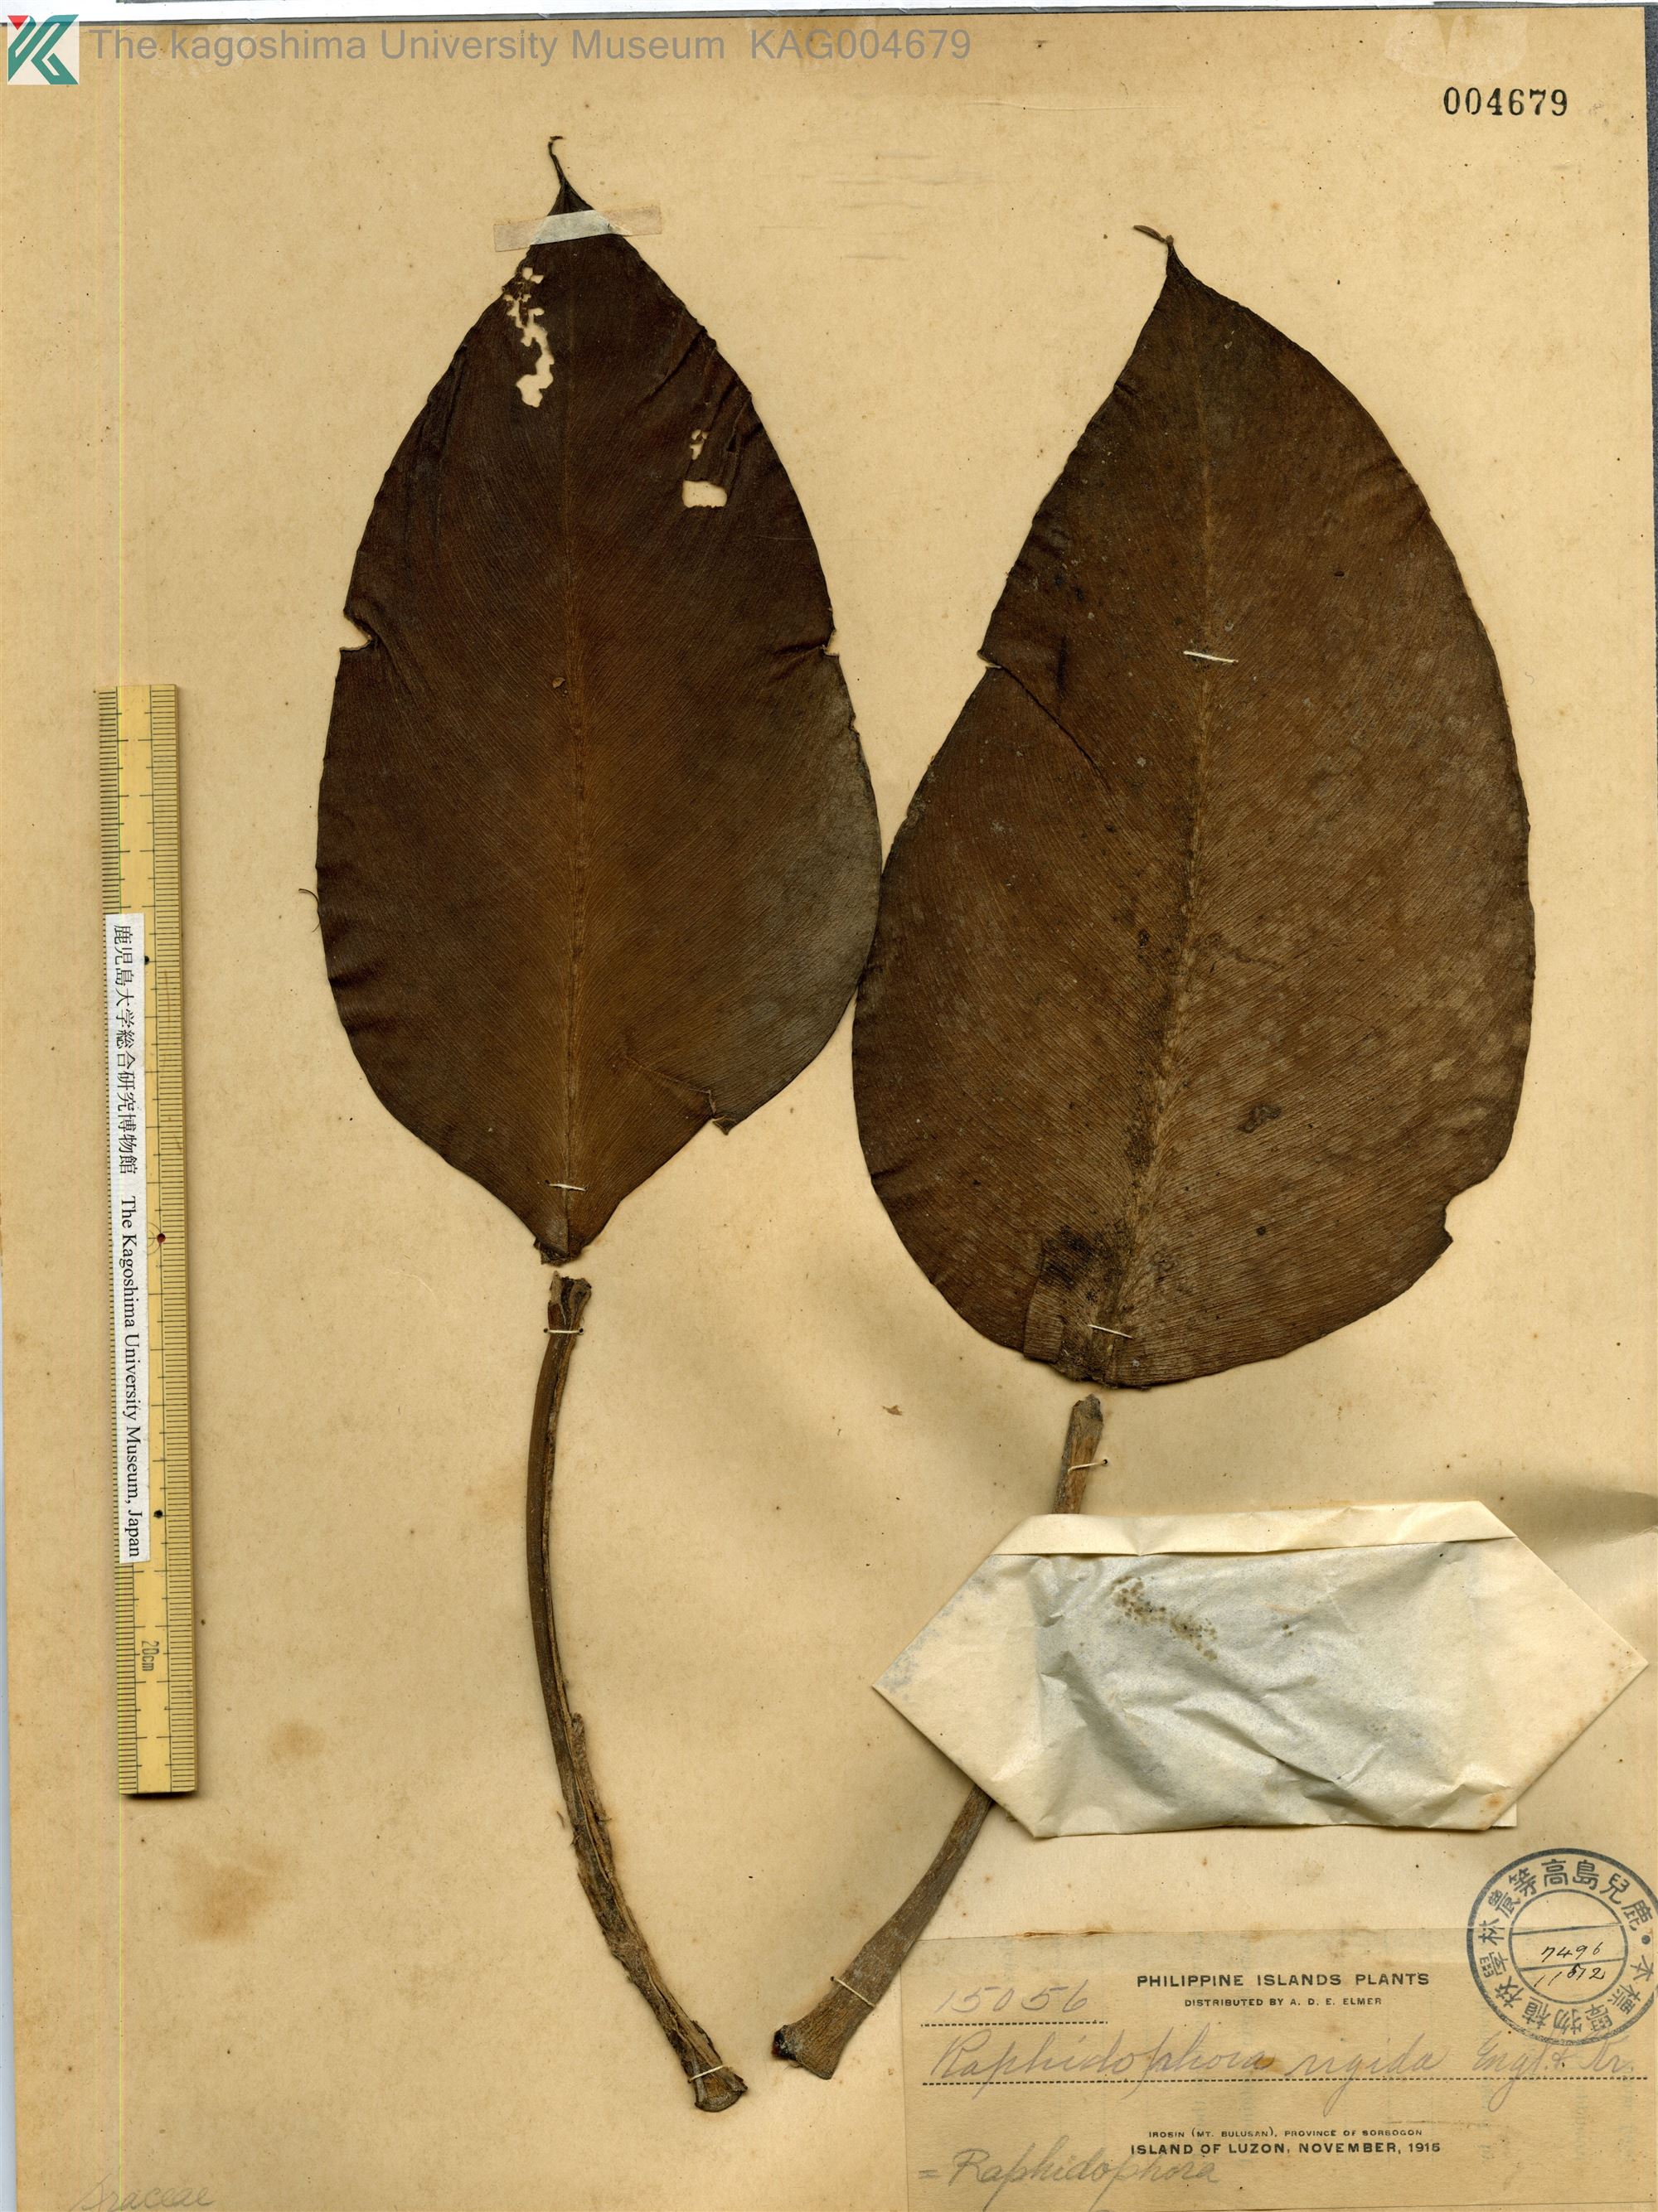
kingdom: Plantae
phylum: Tracheophyta
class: Liliopsida
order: Alismatales
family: Araceae
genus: Rhaphidophora
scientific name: Rhaphidophora philippinensis
